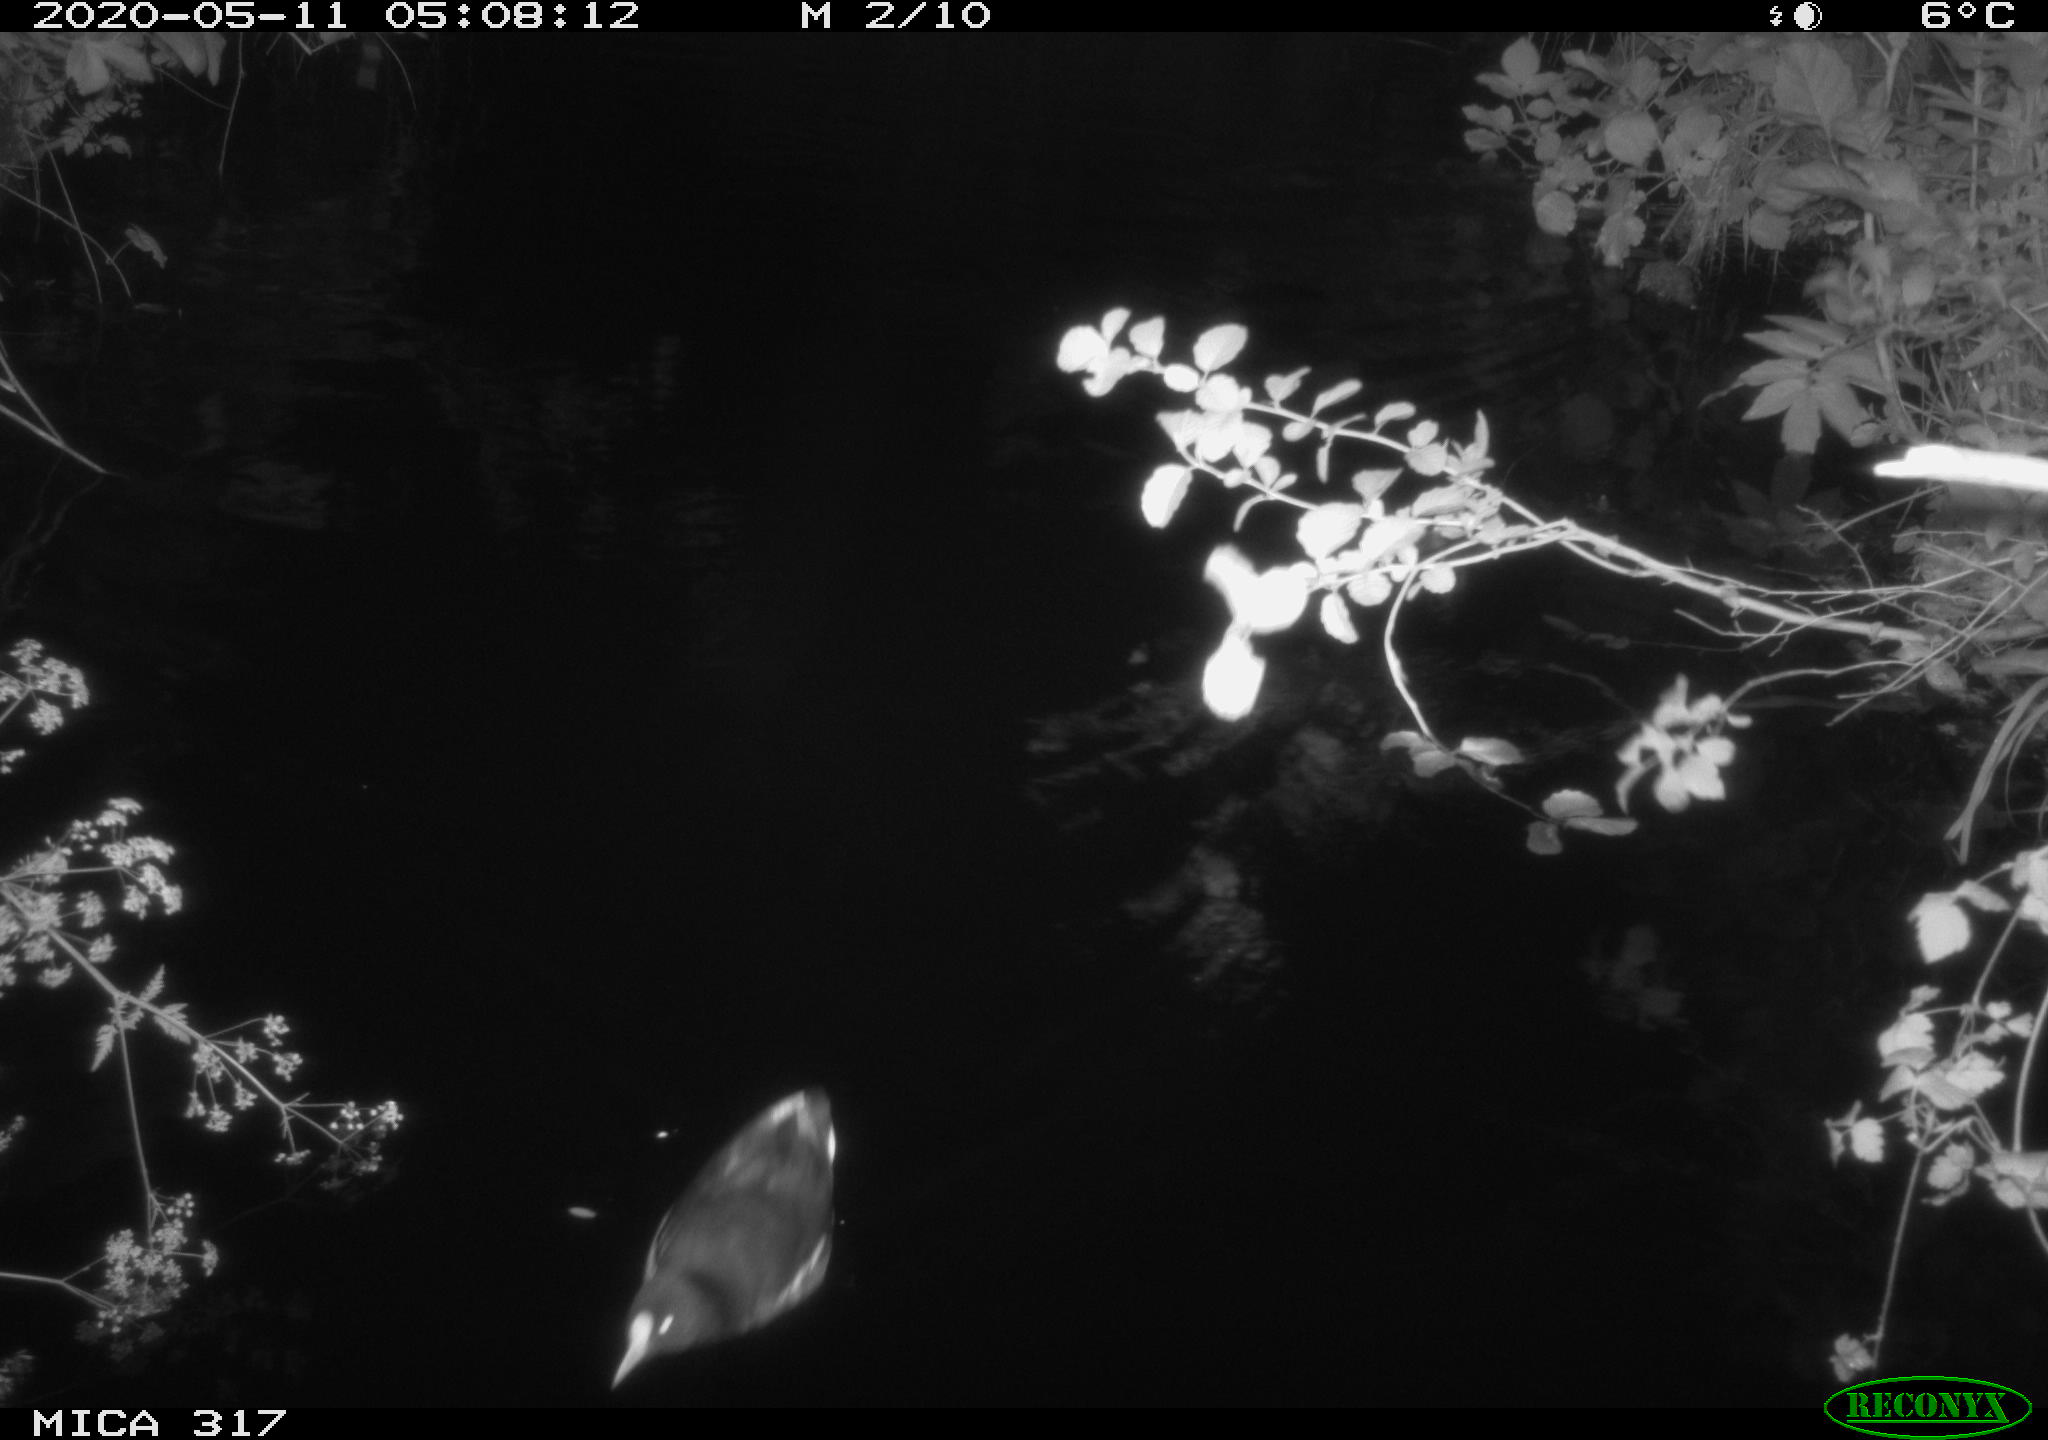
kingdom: Animalia
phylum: Chordata
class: Aves
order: Gruiformes
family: Rallidae
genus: Gallinula
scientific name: Gallinula chloropus
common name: Common moorhen
